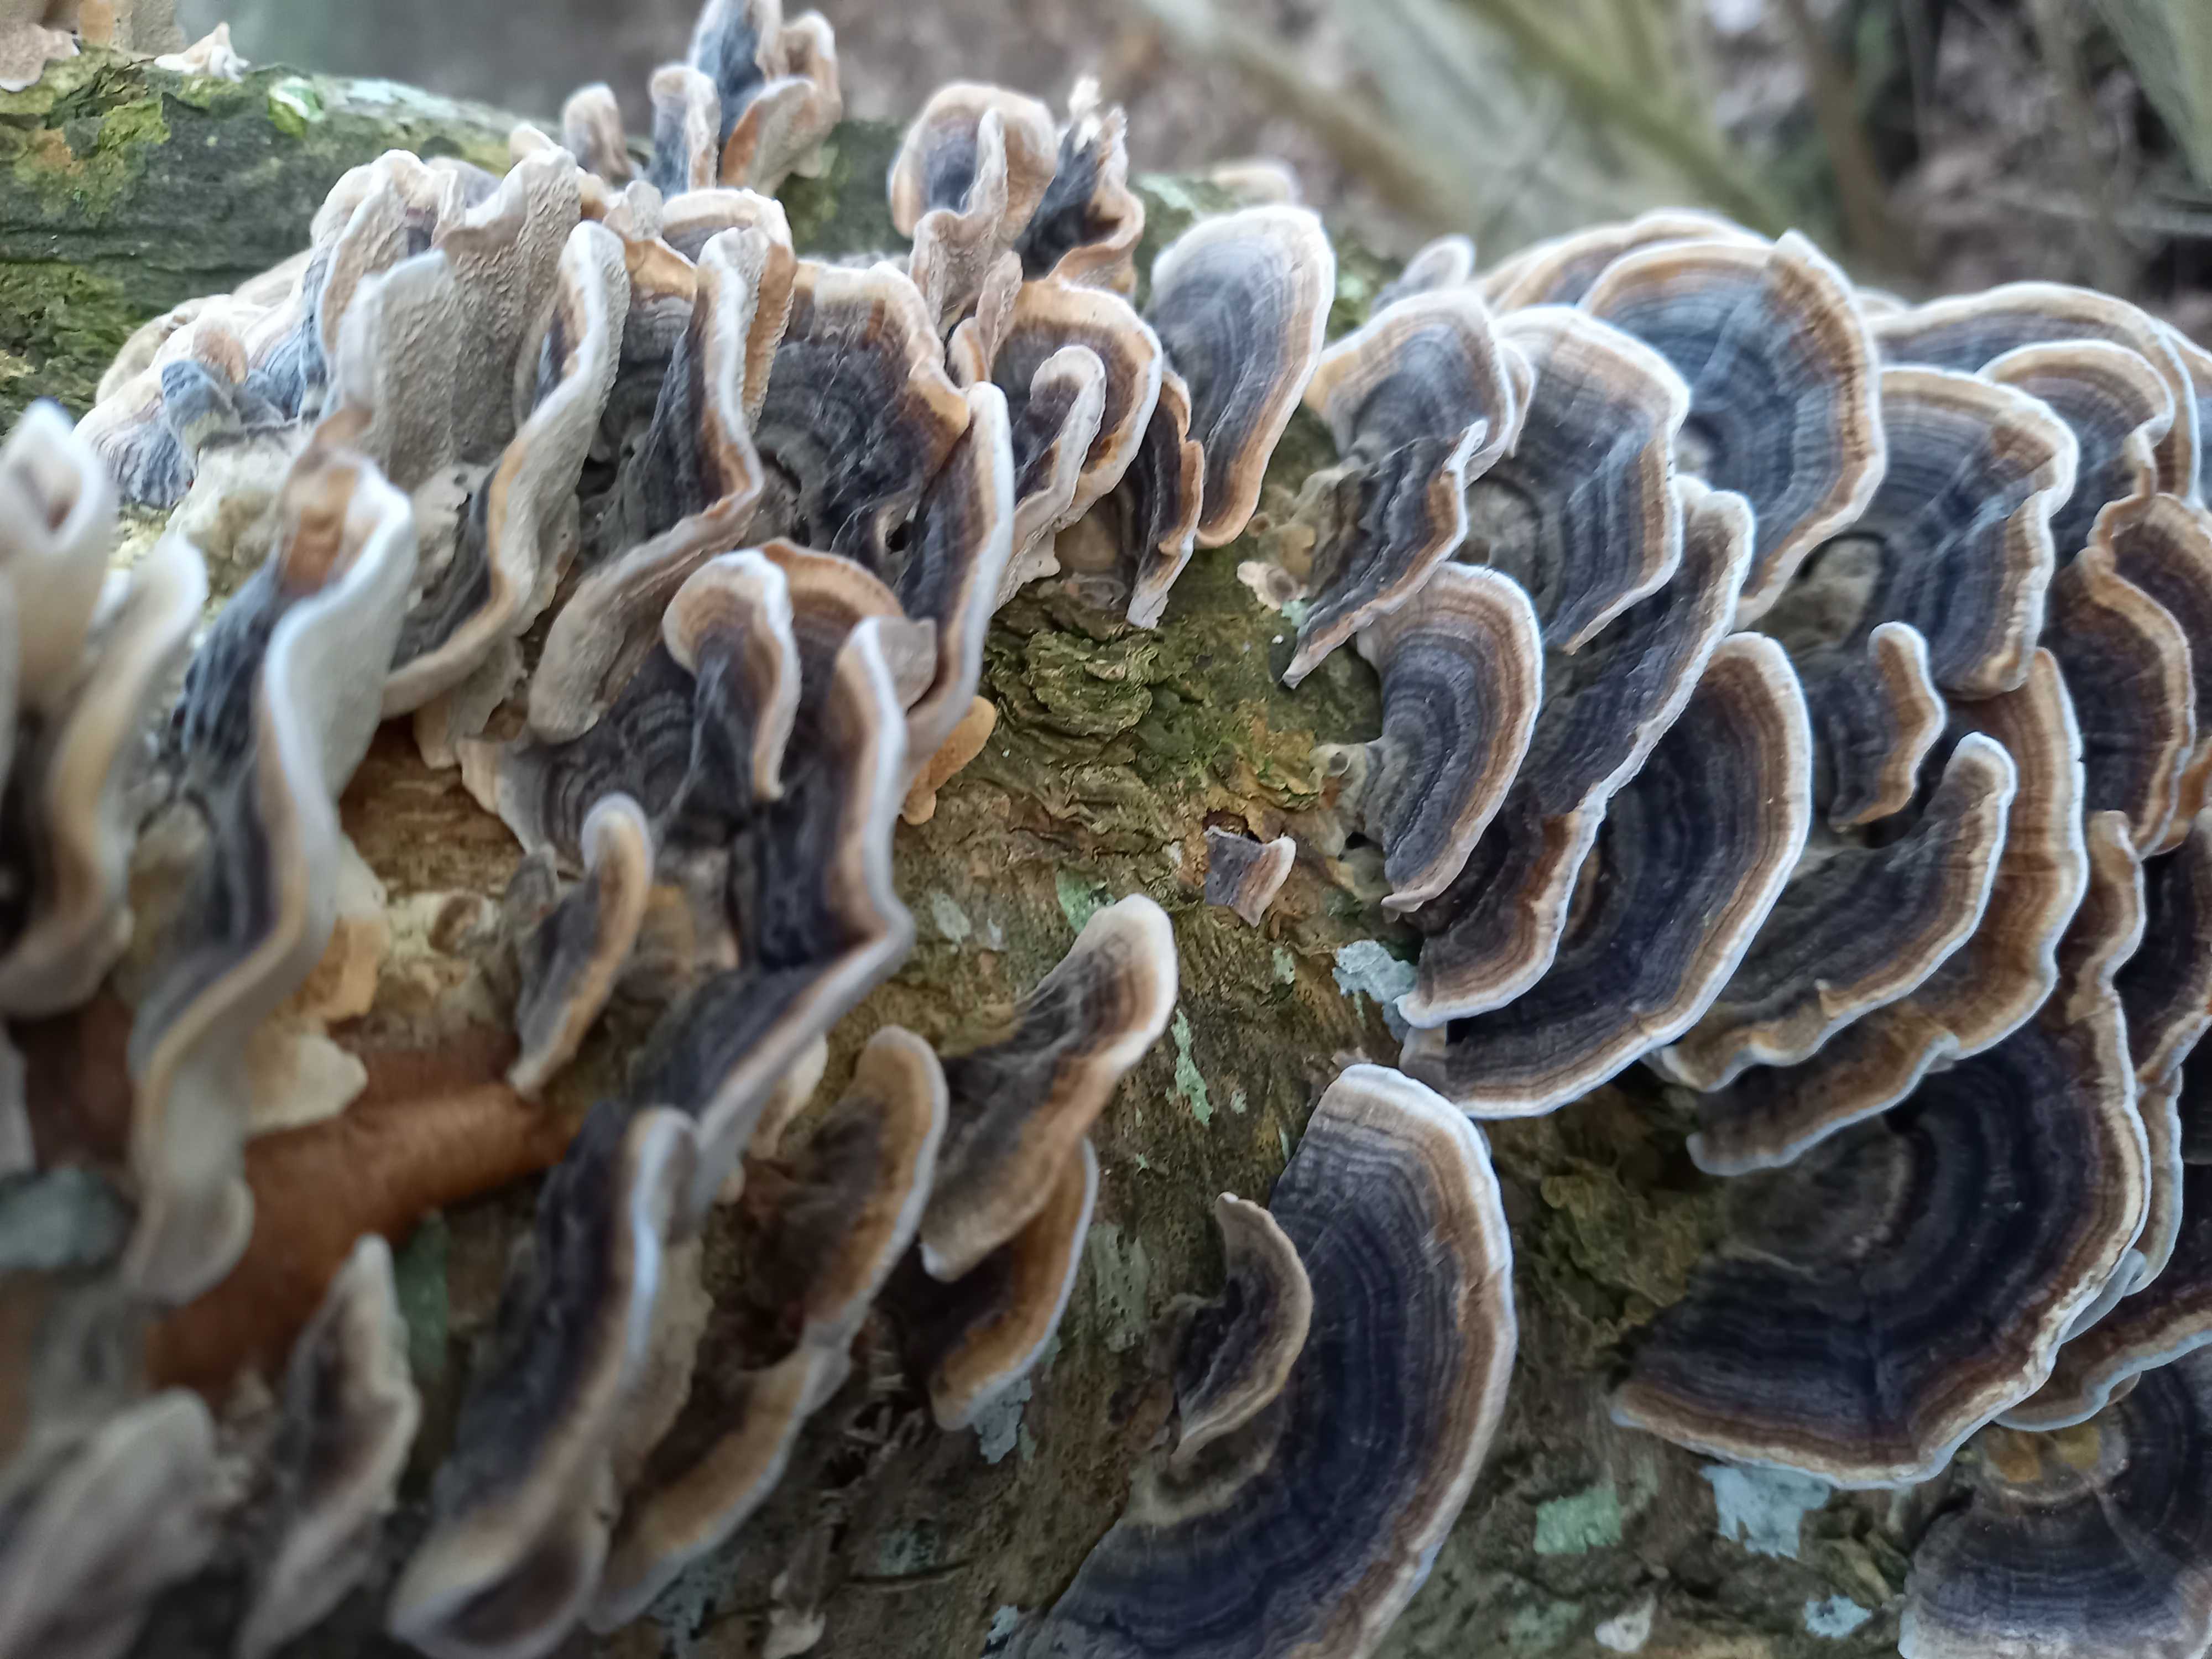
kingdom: Fungi
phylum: Basidiomycota
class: Agaricomycetes
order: Polyporales
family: Polyporaceae
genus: Trametes
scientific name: Trametes versicolor
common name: broget læderporesvamp
